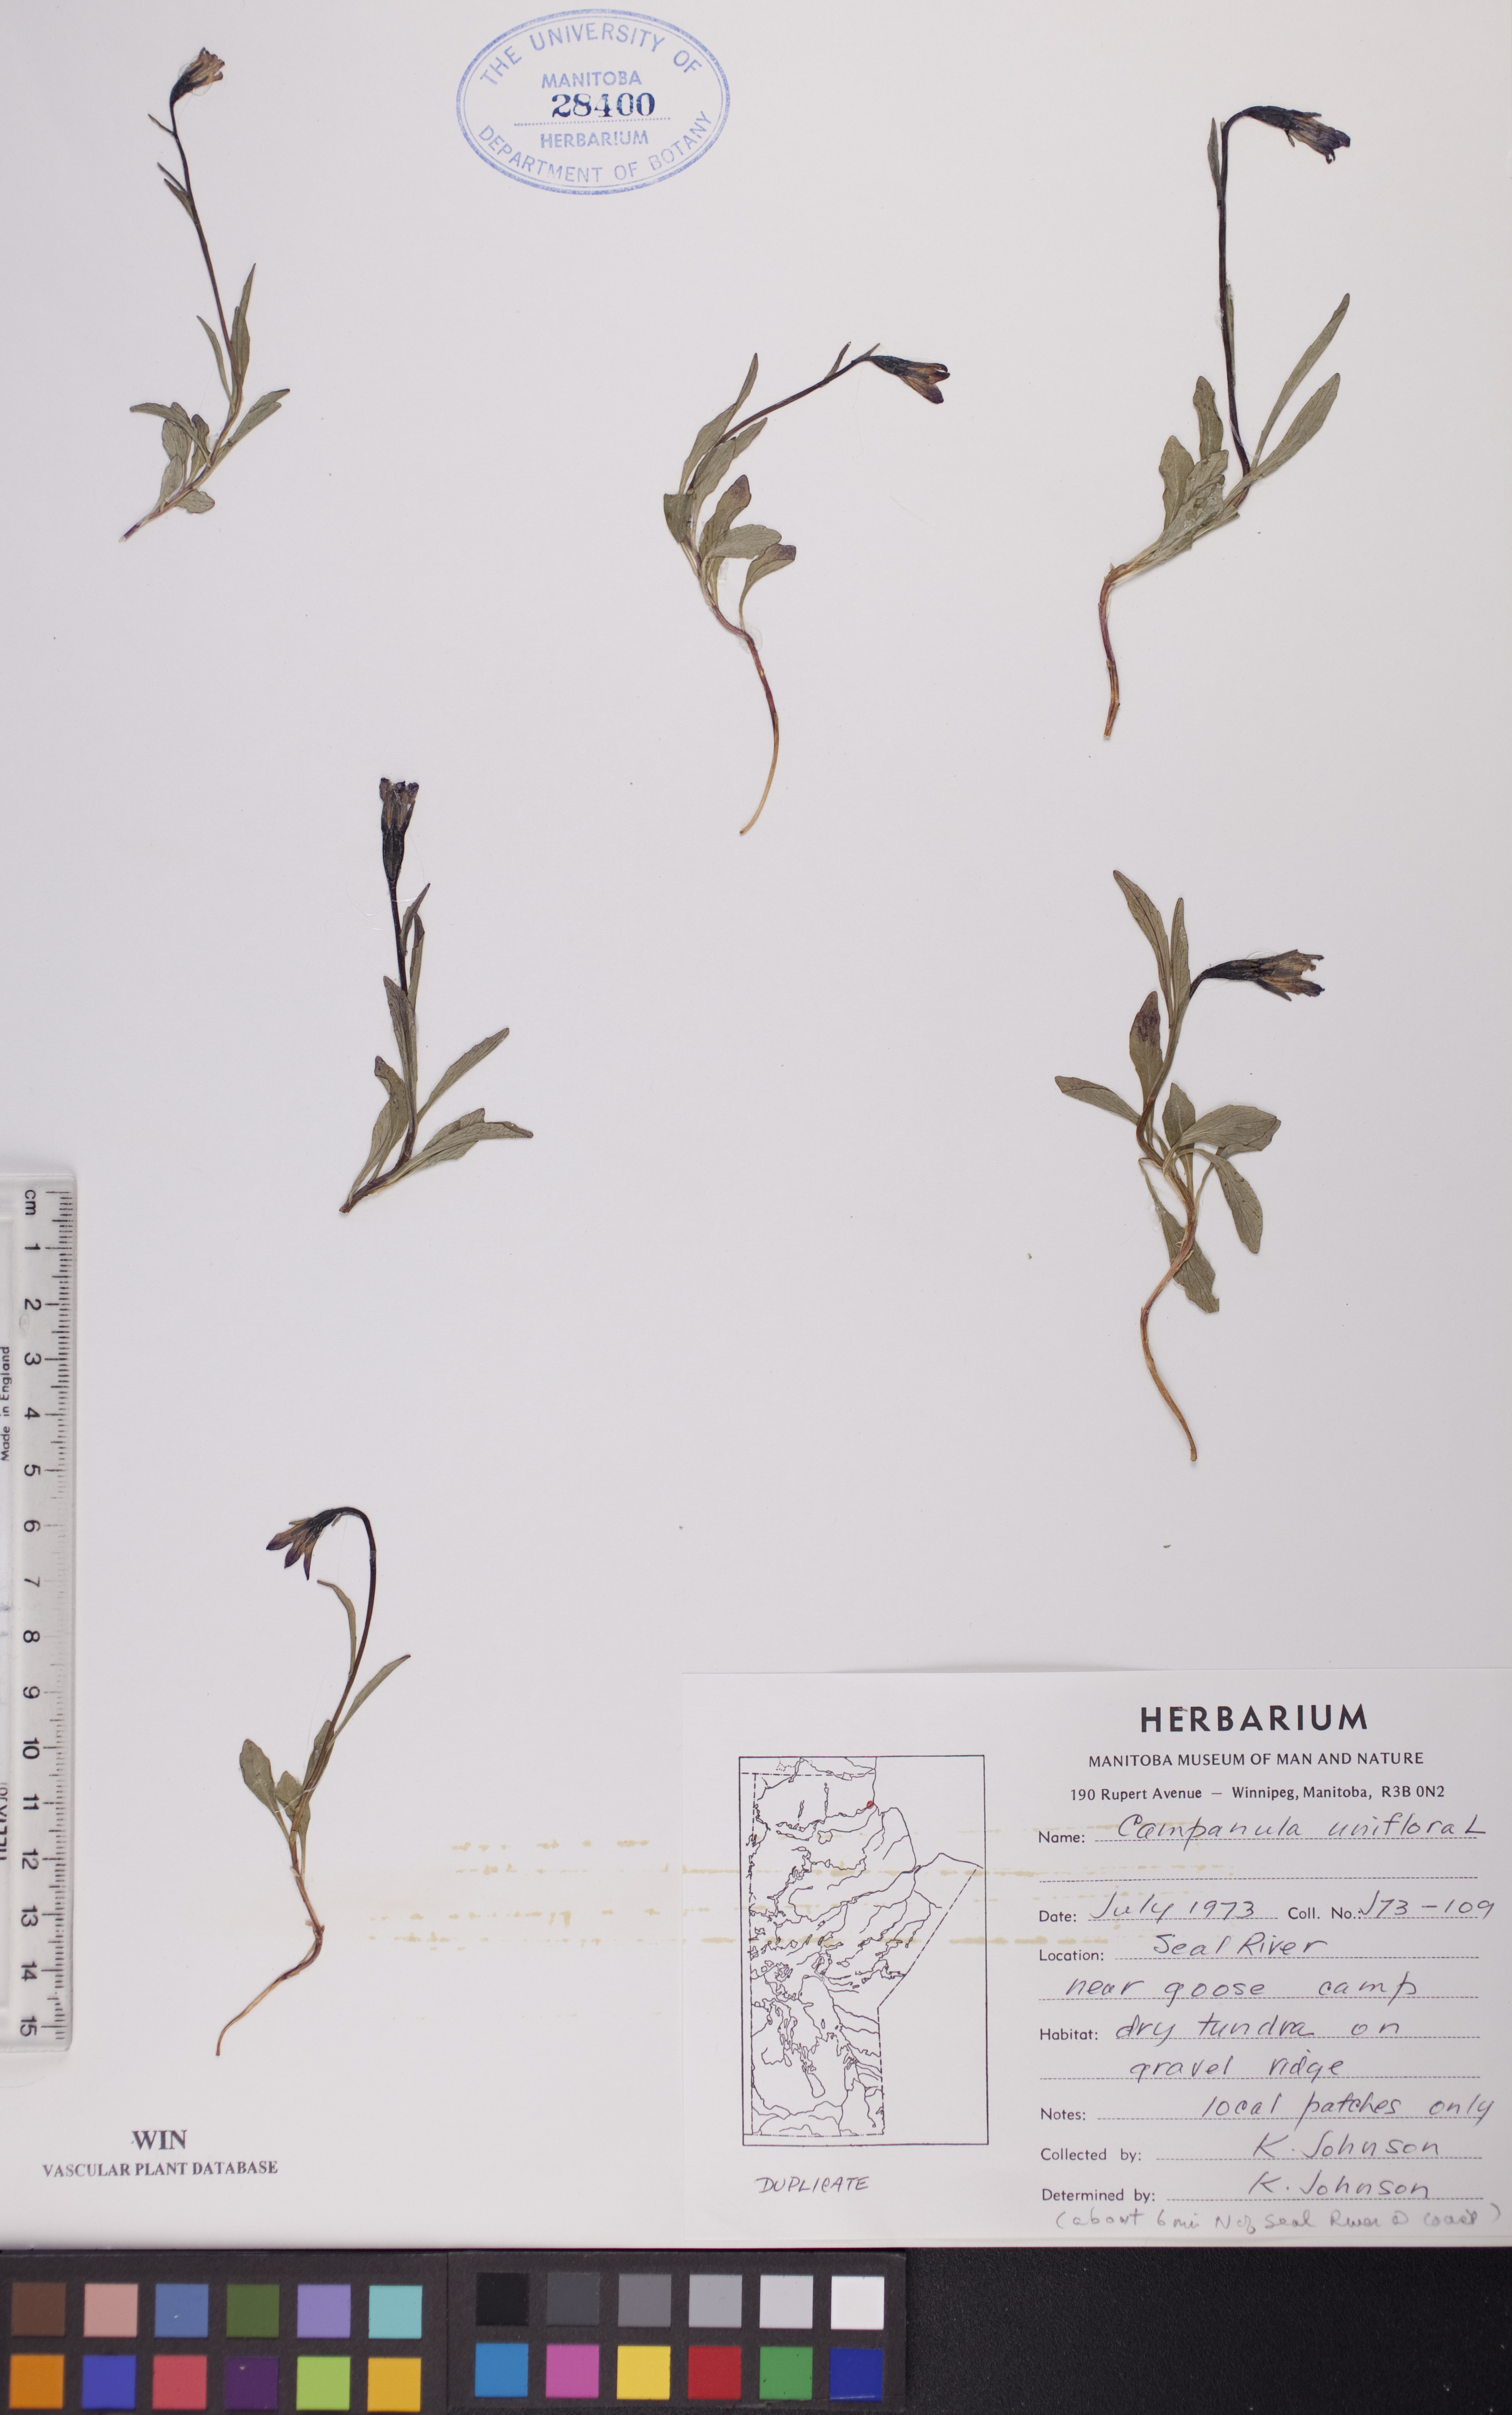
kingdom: Plantae
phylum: Tracheophyta
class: Magnoliopsida
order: Asterales
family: Campanulaceae
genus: Melanocalyx
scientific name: Melanocalyx uniflora
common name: Alpine harebell
